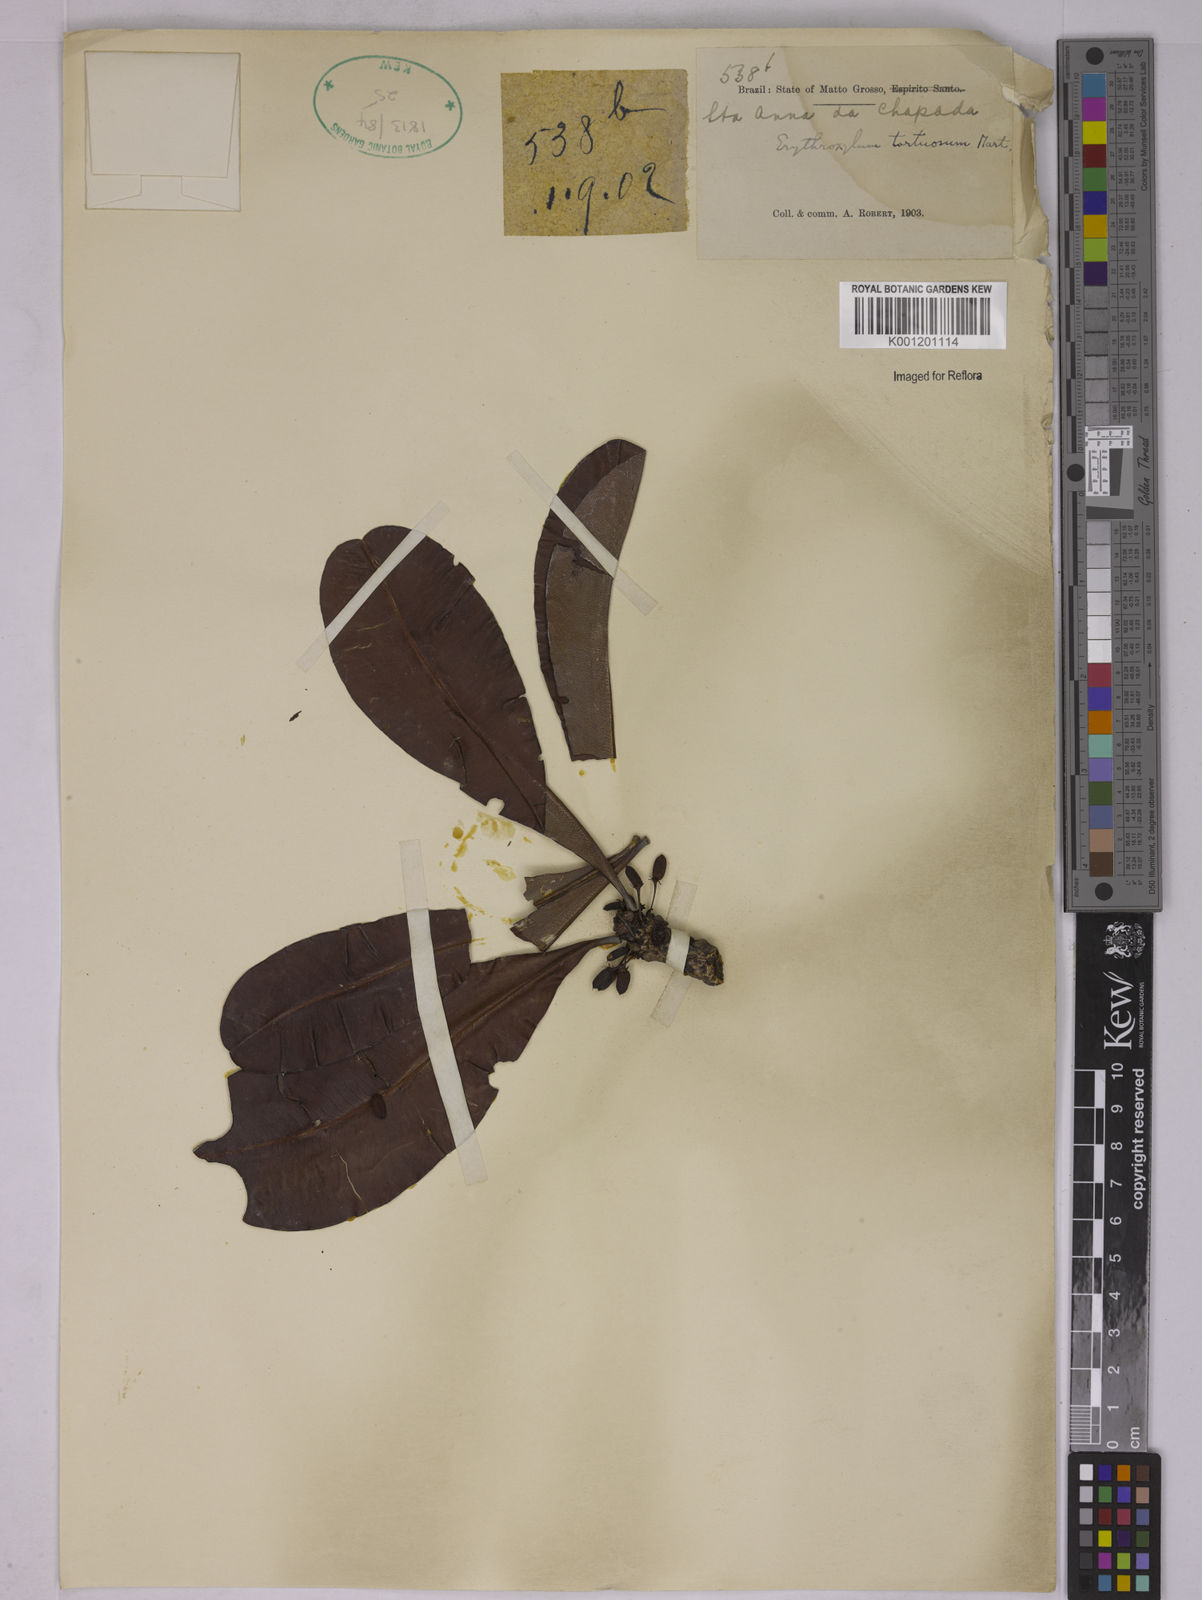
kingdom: Plantae
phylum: Tracheophyta
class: Magnoliopsida
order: Malpighiales
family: Erythroxylaceae
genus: Erythroxylum
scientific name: Erythroxylum tortuosum
